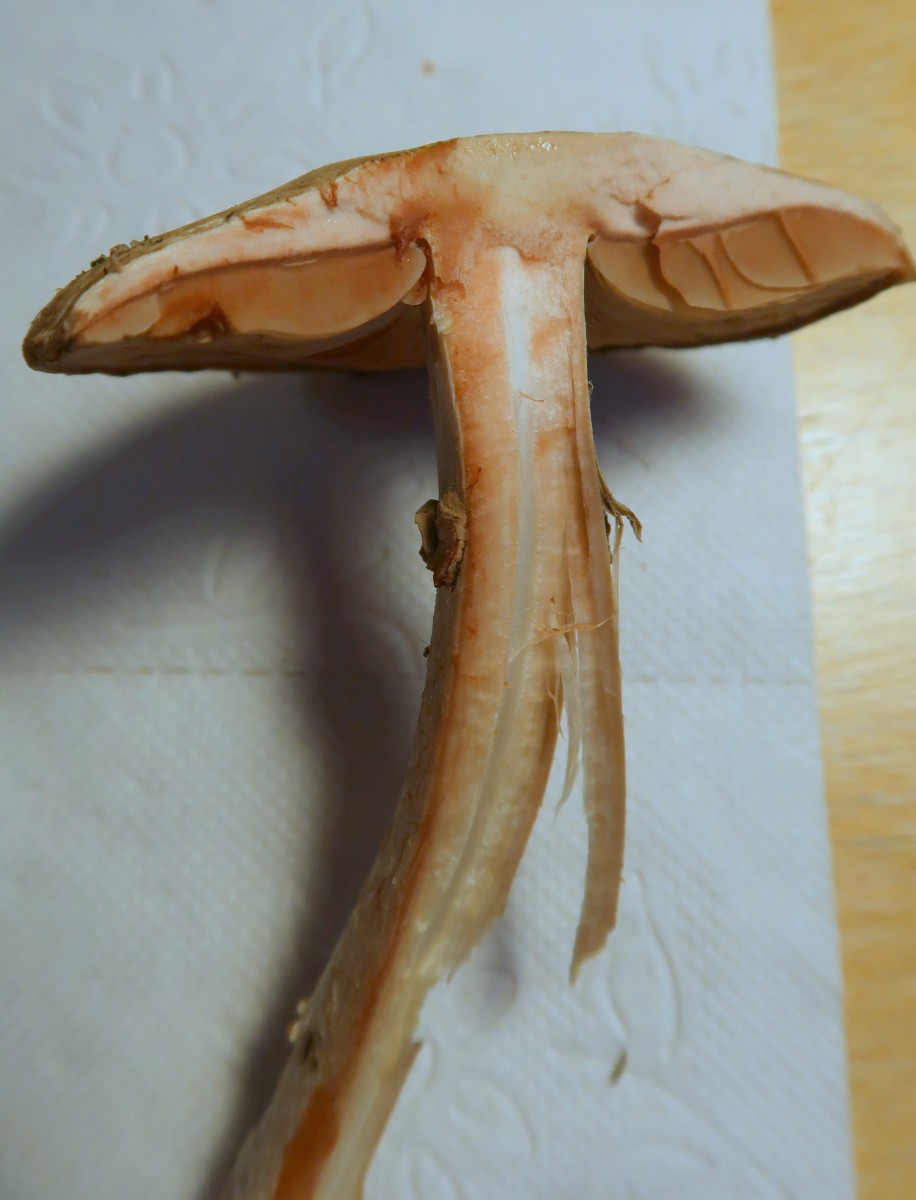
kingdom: Fungi
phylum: Basidiomycota
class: Agaricomycetes
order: Agaricales
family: Agaricaceae
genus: Agaricus
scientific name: Agaricus sylvaticus
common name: lille blod-champignon
